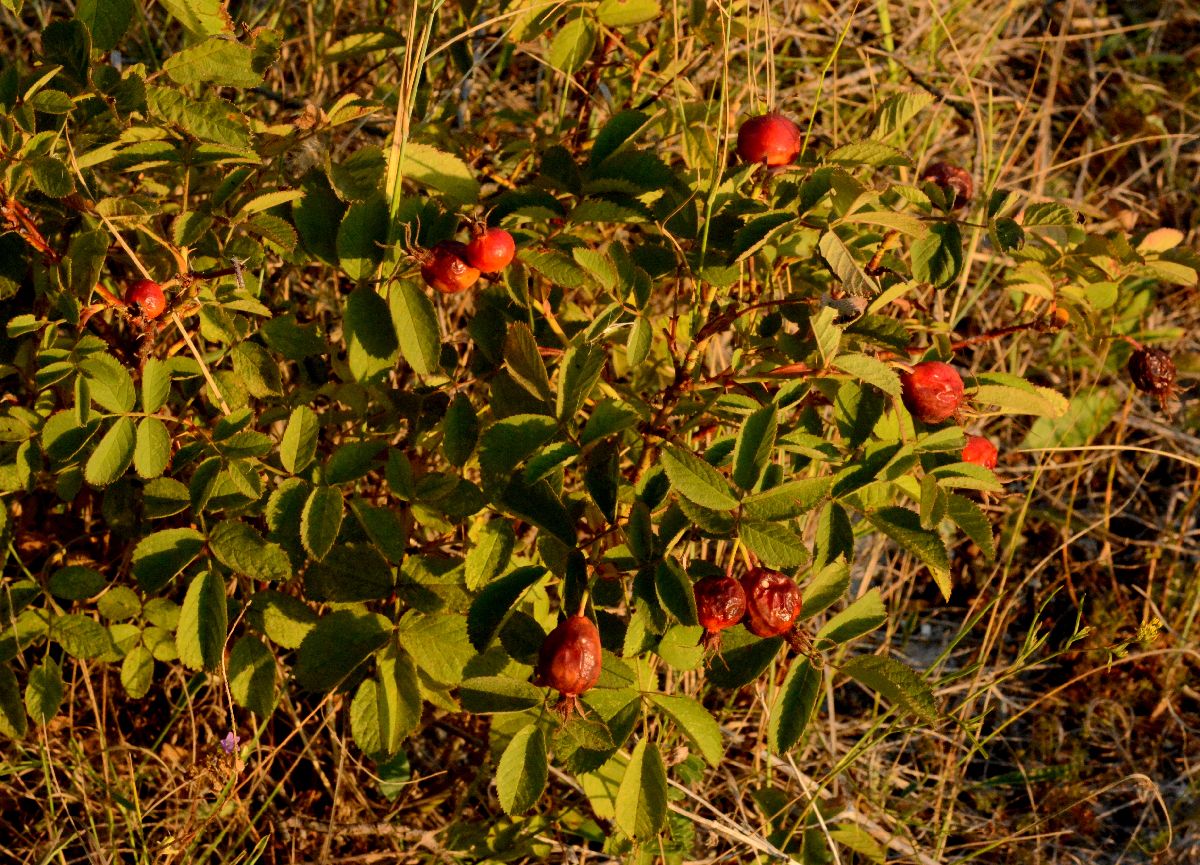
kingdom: Plantae
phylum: Tracheophyta
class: Magnoliopsida
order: Rosales
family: Rosaceae
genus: Rosa
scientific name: Rosa villosa
